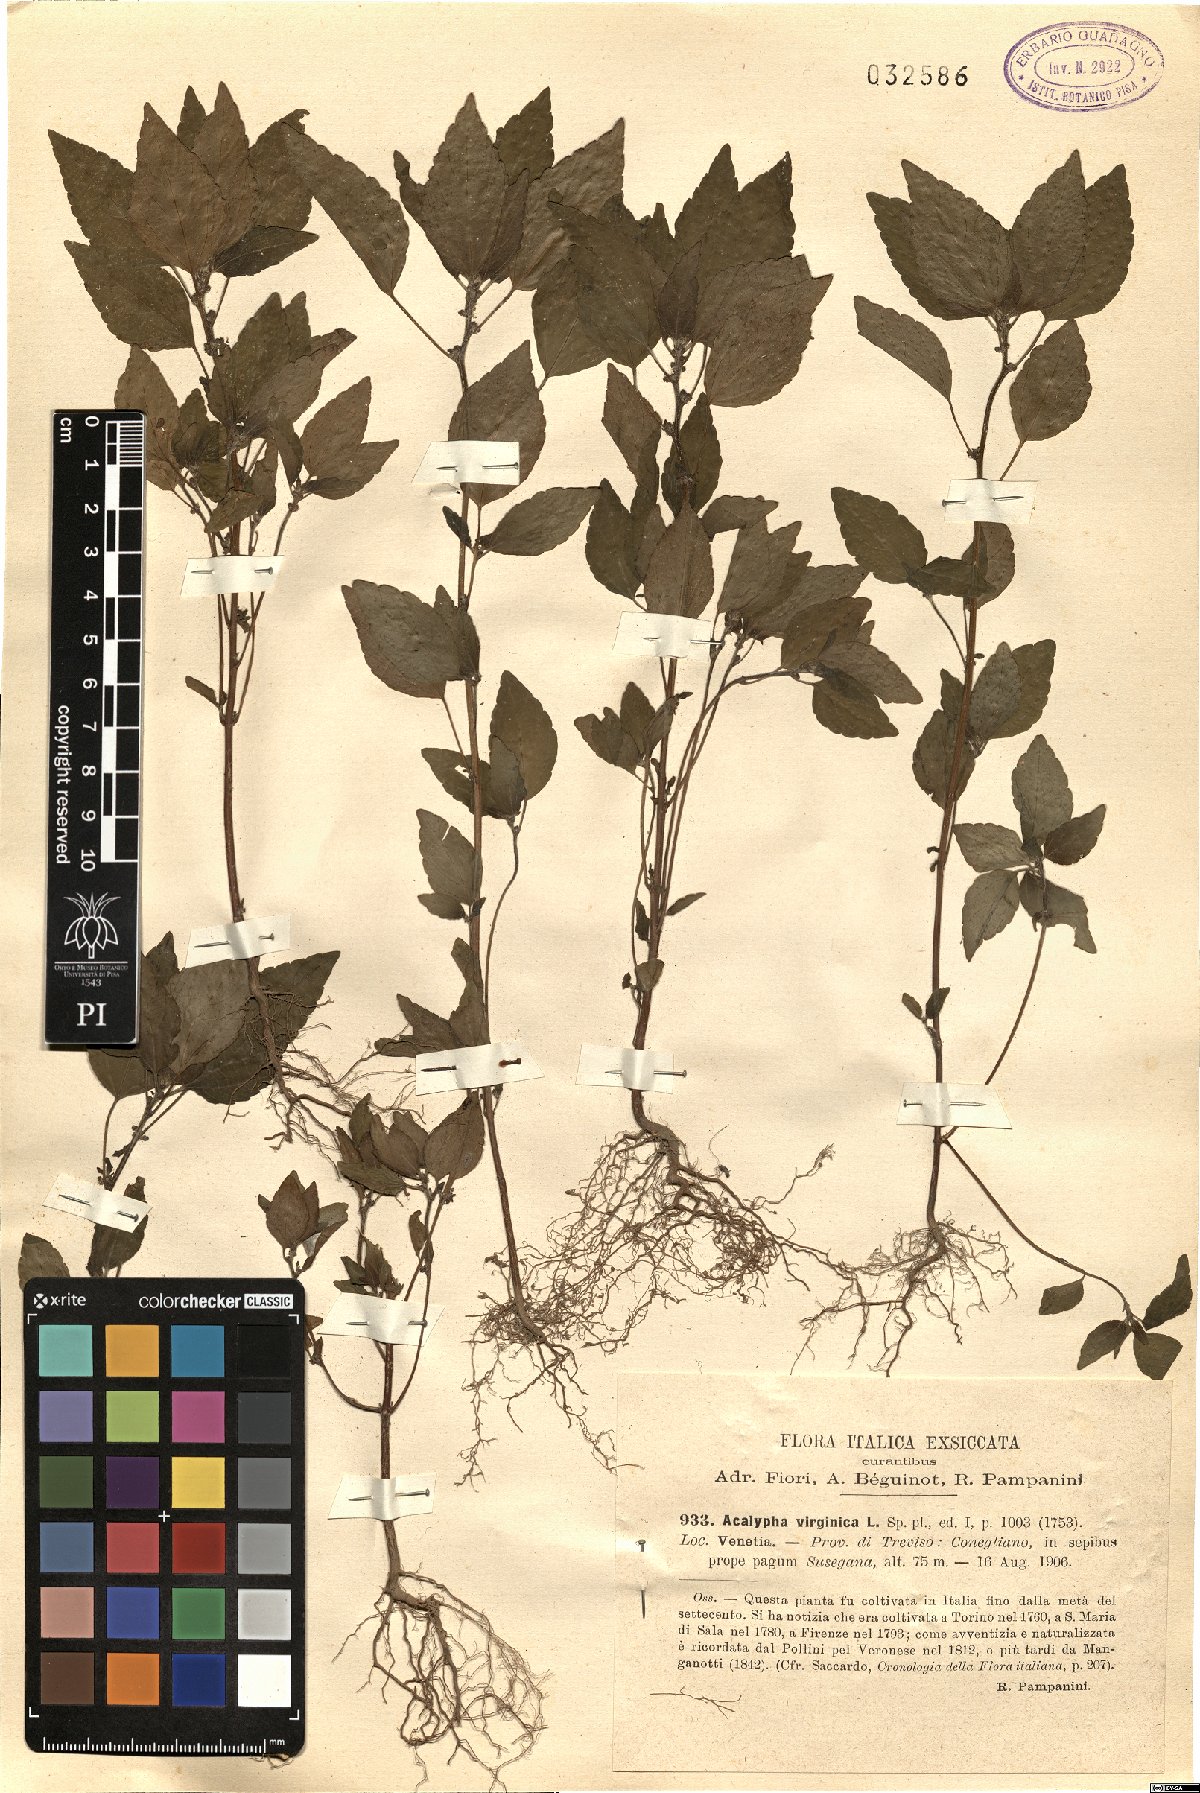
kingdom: Plantae
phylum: Tracheophyta
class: Magnoliopsida
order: Malpighiales
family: Euphorbiaceae
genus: Acalypha
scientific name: Acalypha virginica
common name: Virginia copperleaf
